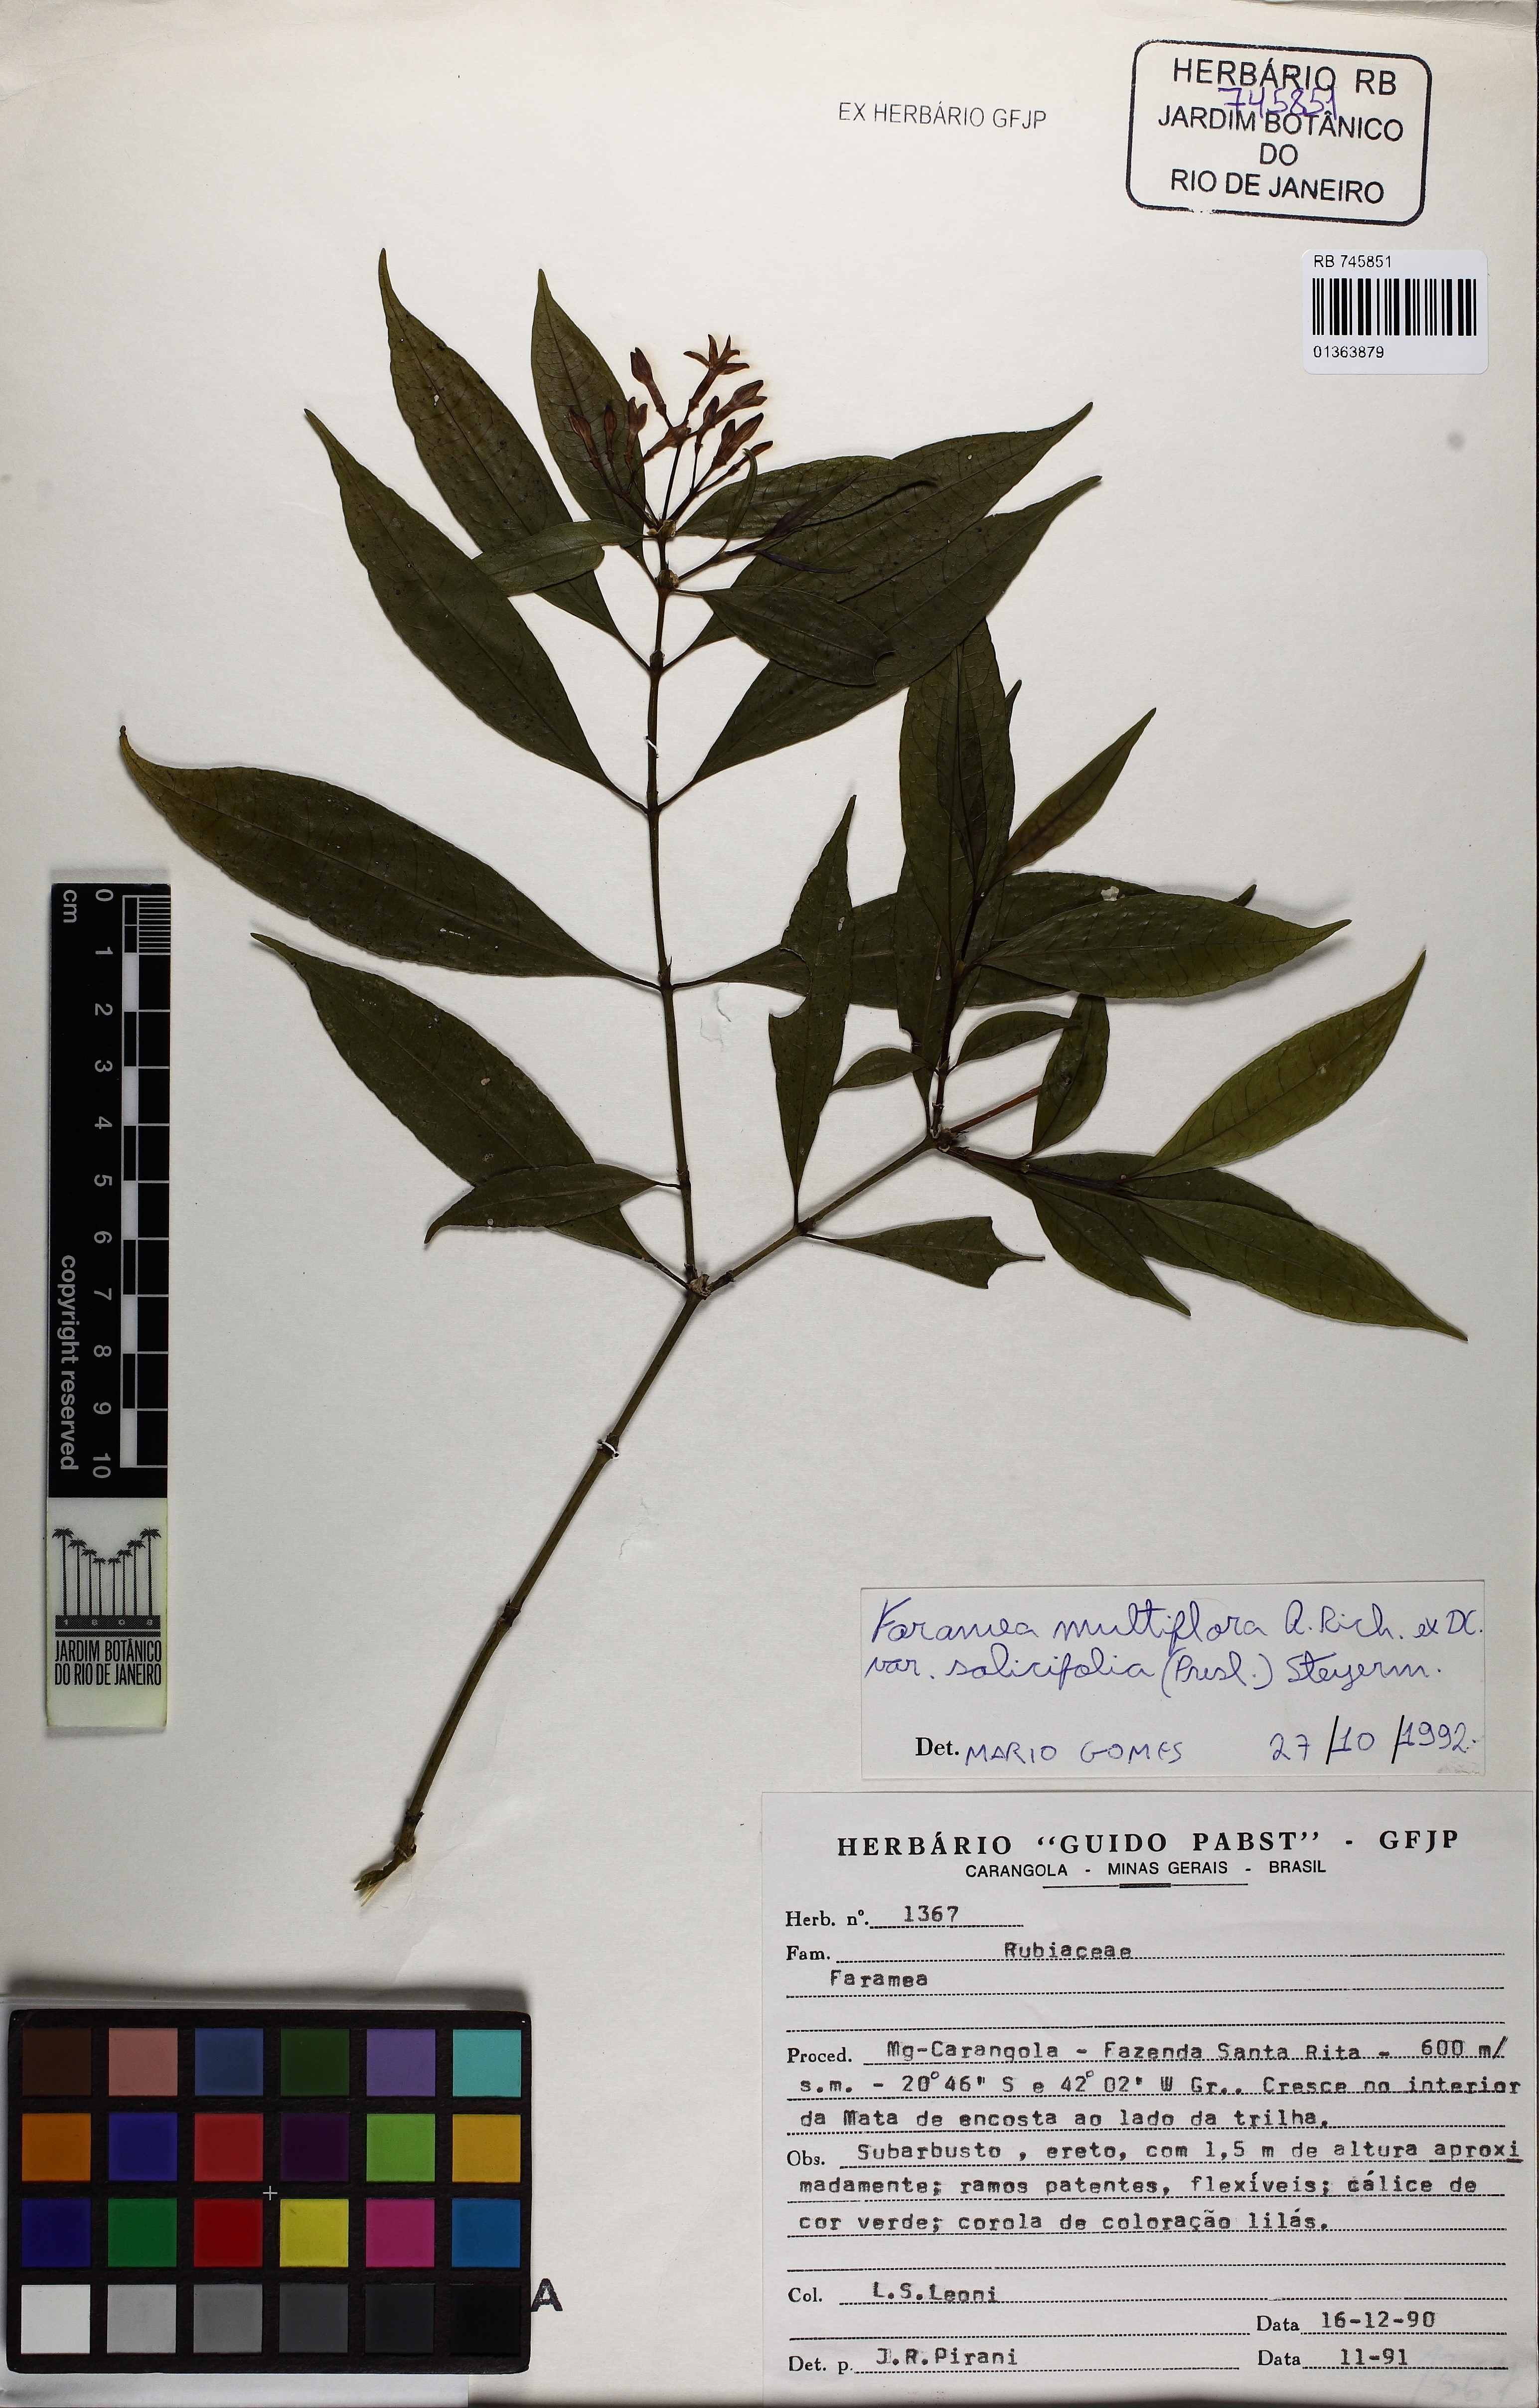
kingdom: Plantae
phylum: Tracheophyta
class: Magnoliopsida
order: Gentianales
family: Rubiaceae
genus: Faramea
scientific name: Faramea multiflora
